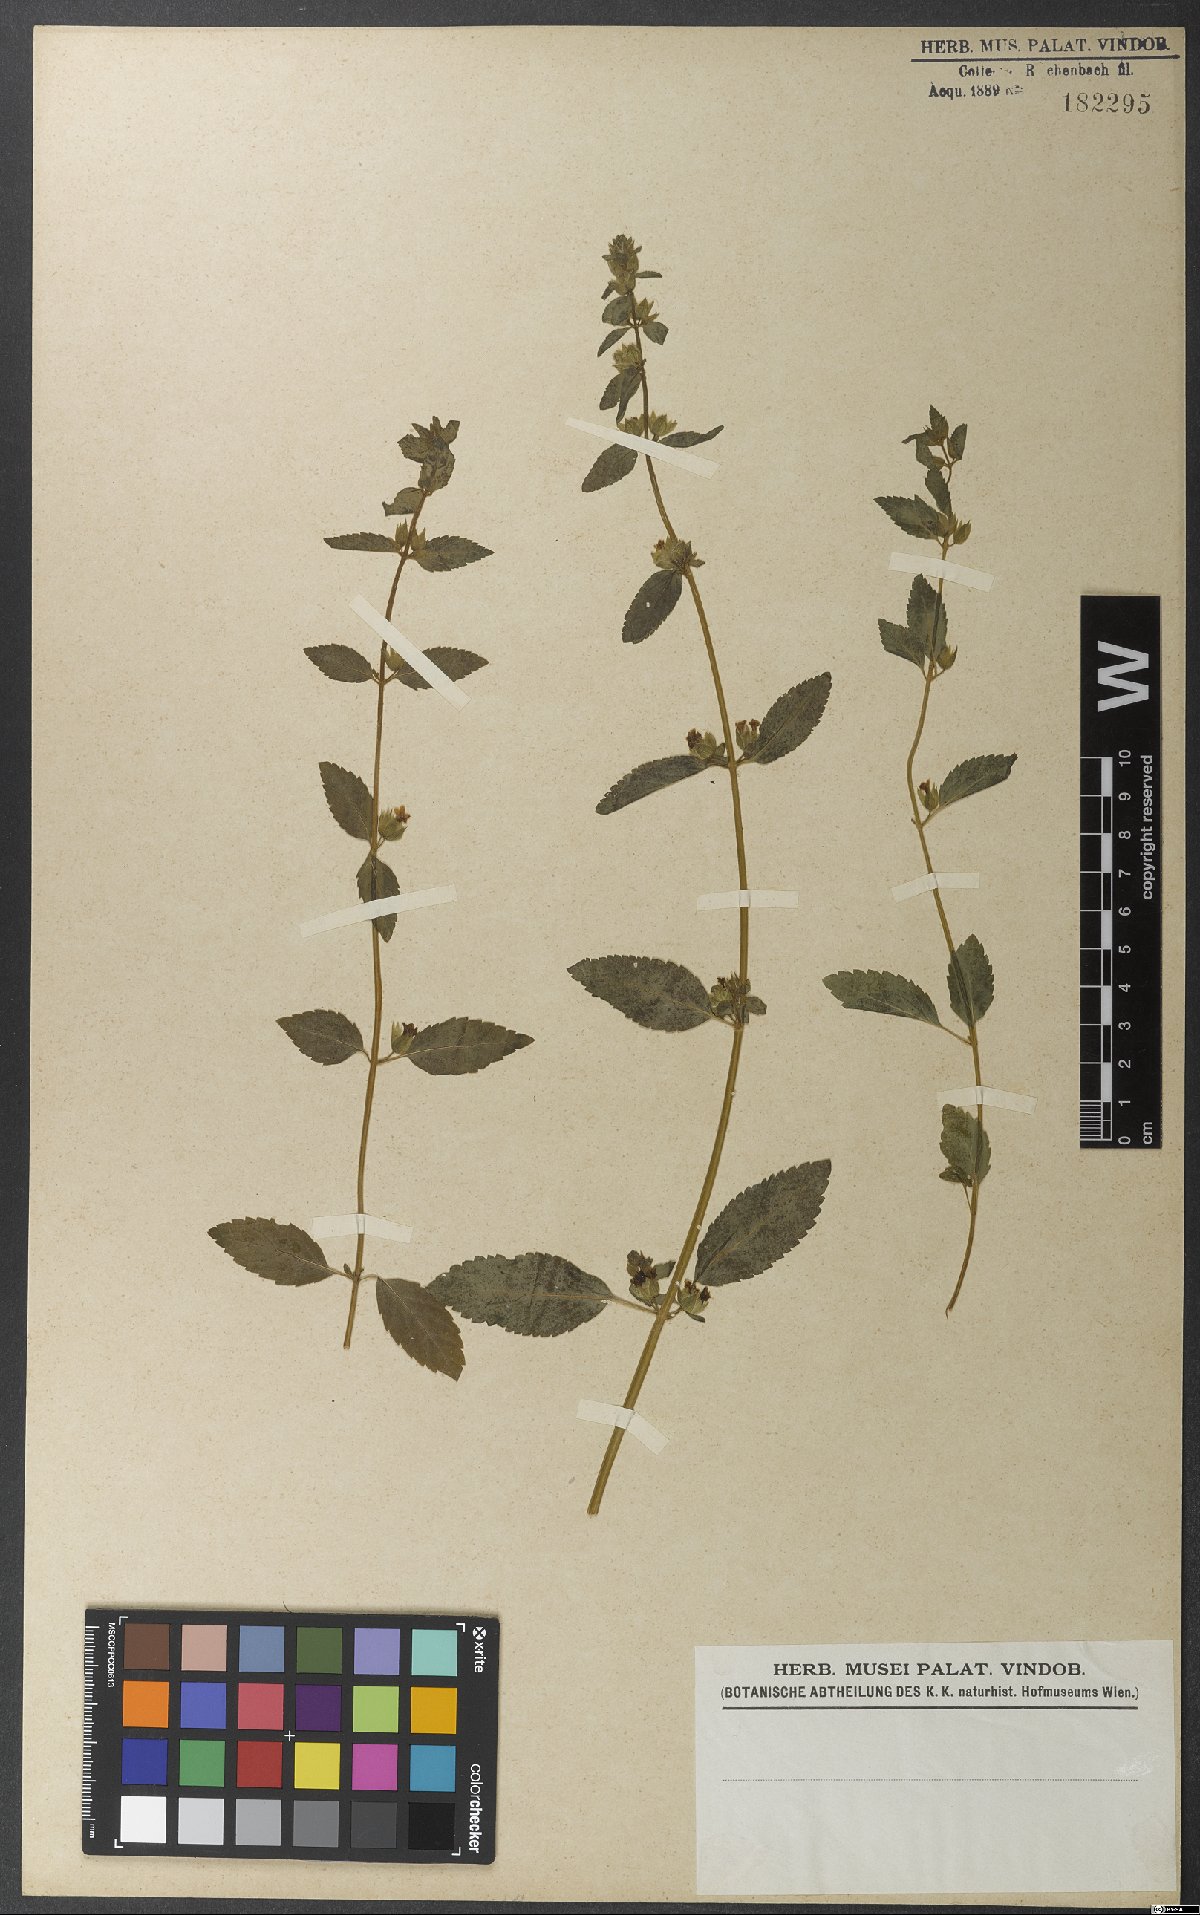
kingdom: Plantae
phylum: Tracheophyta
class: Magnoliopsida
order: Lamiales
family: Lamiaceae
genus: Marsypianthes
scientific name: Marsypianthes chamaedrys
